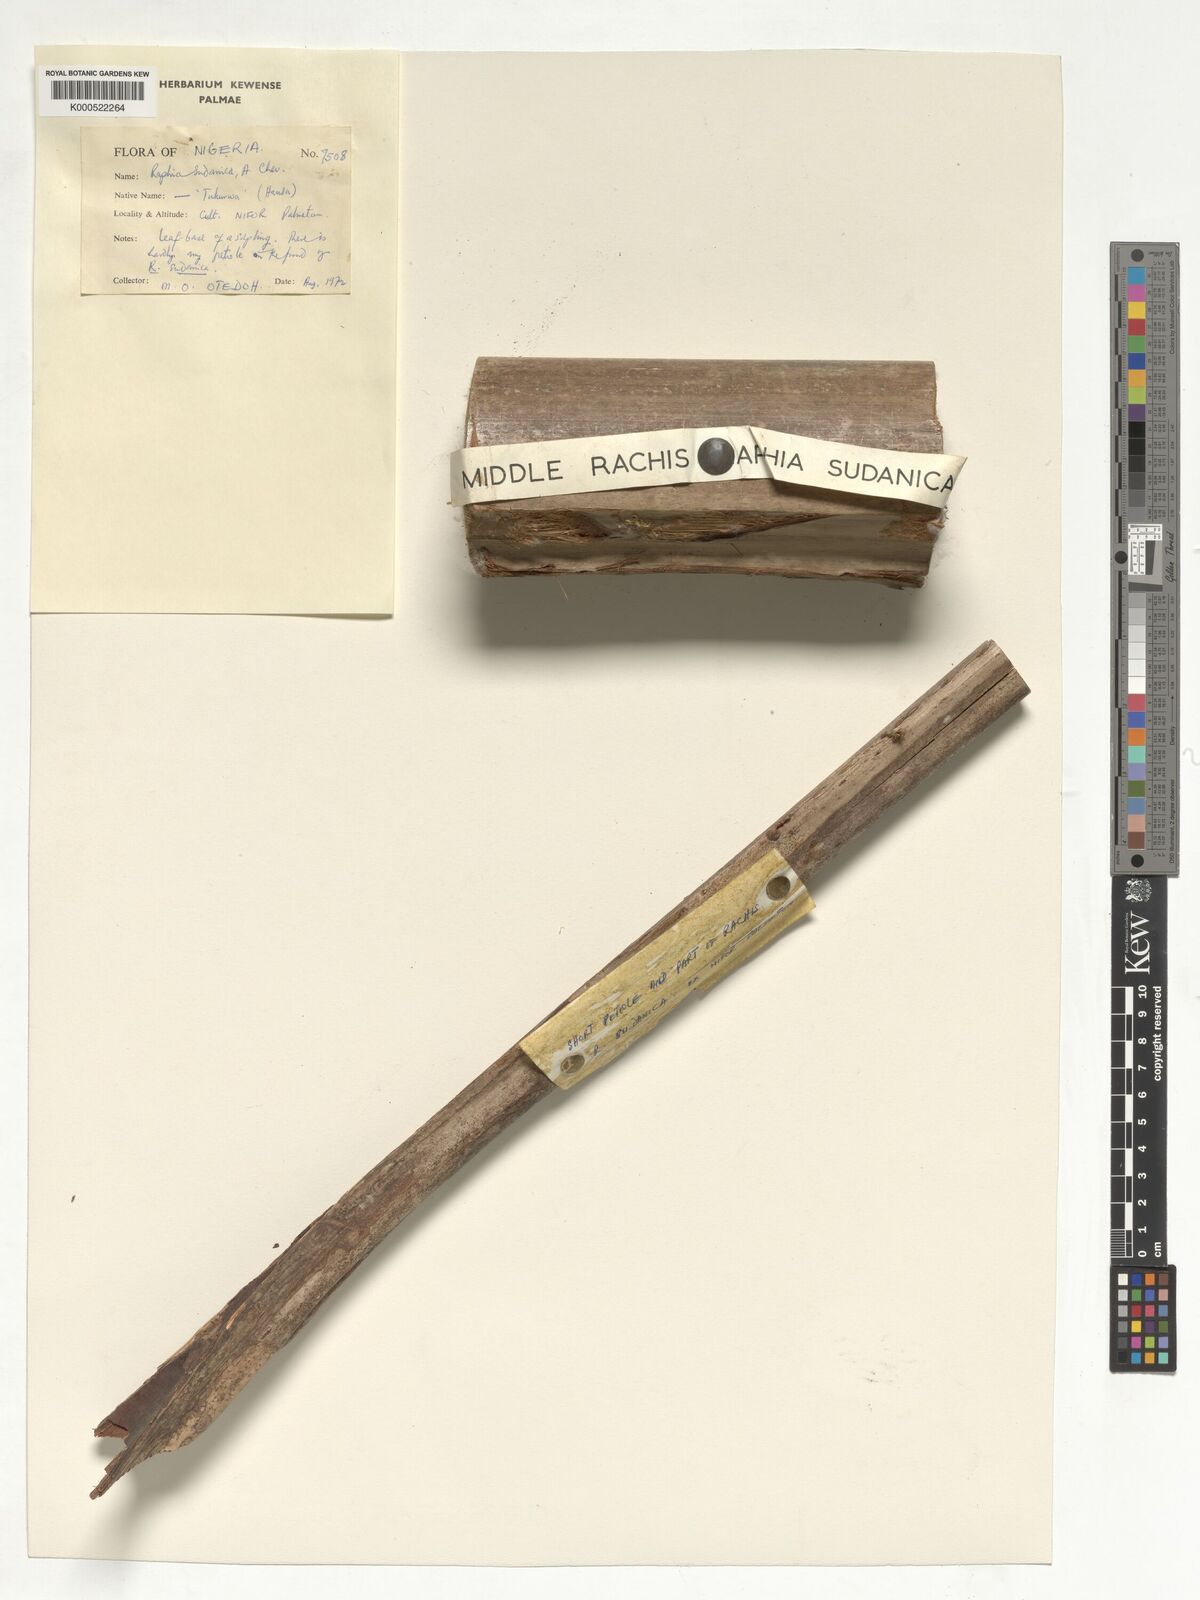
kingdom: Plantae
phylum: Tracheophyta
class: Liliopsida
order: Arecales
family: Arecaceae
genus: Raphia
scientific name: Raphia sudanica
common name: Northern raphia
